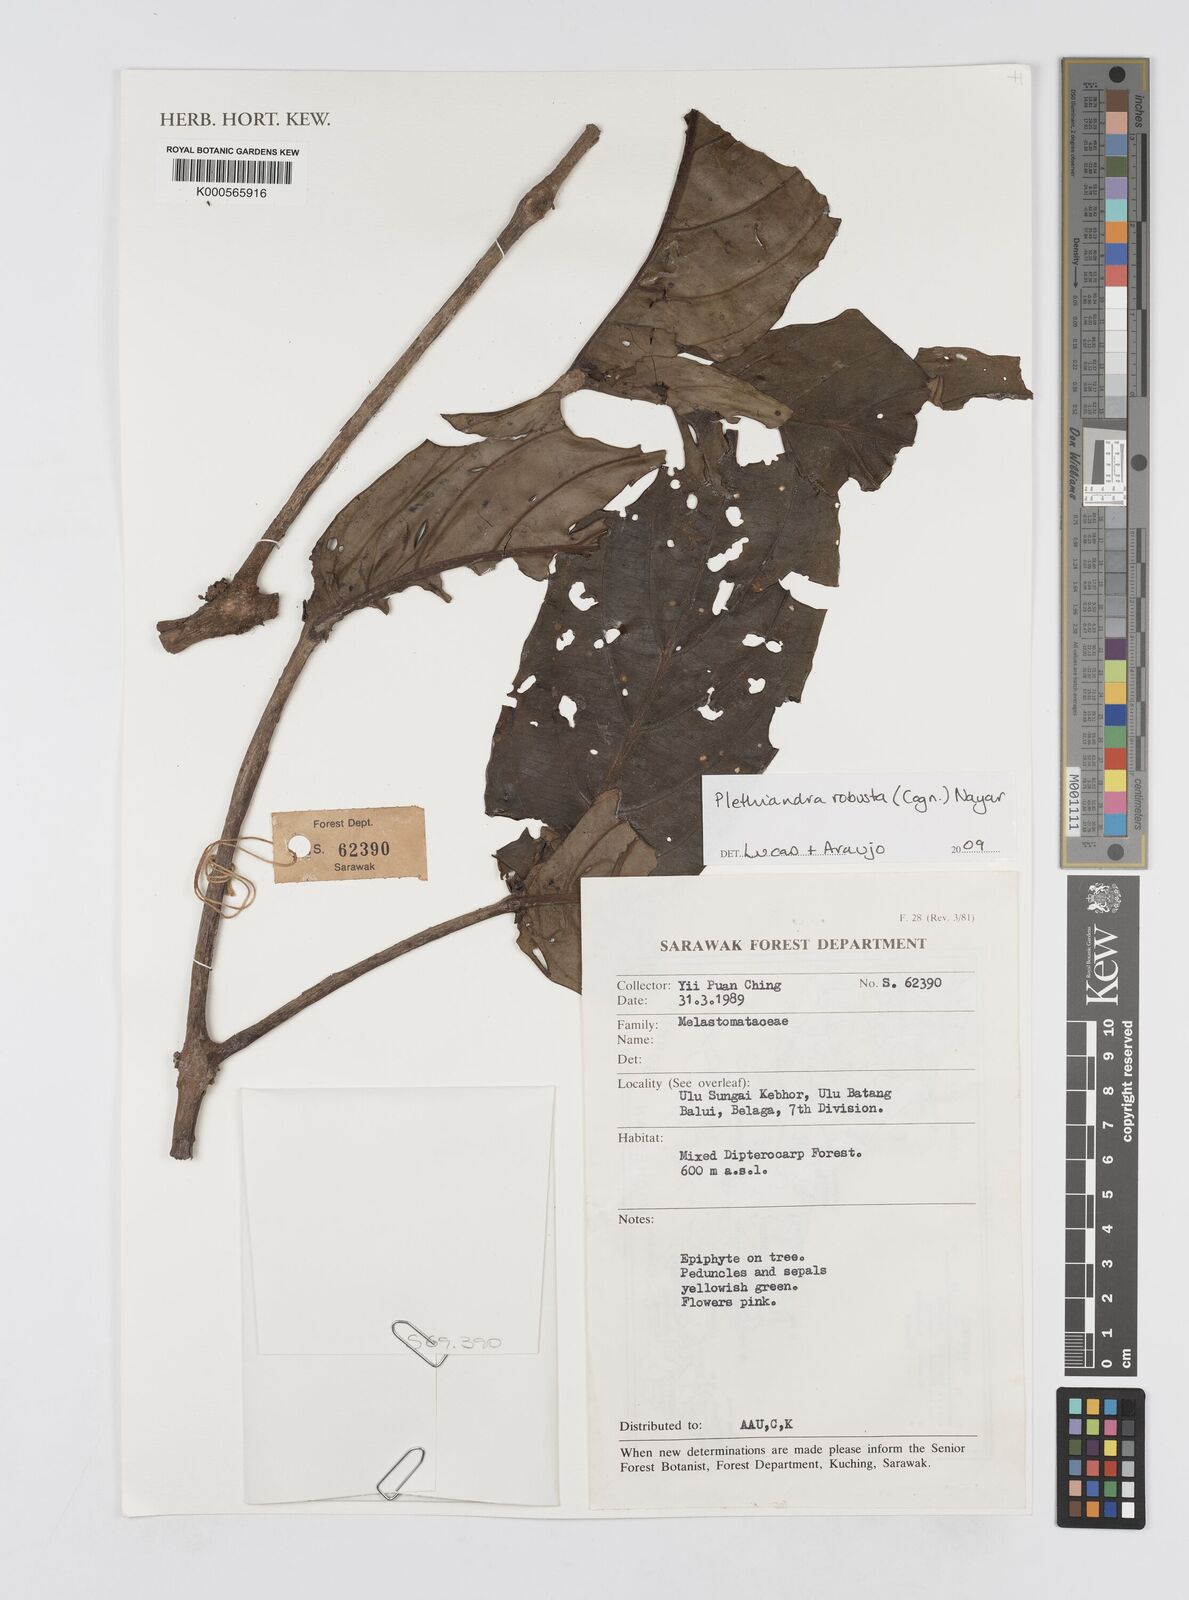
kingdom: Plantae
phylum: Tracheophyta
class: Magnoliopsida
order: Myrtales
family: Melastomataceae
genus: Plethiandra
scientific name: Plethiandra robusta
